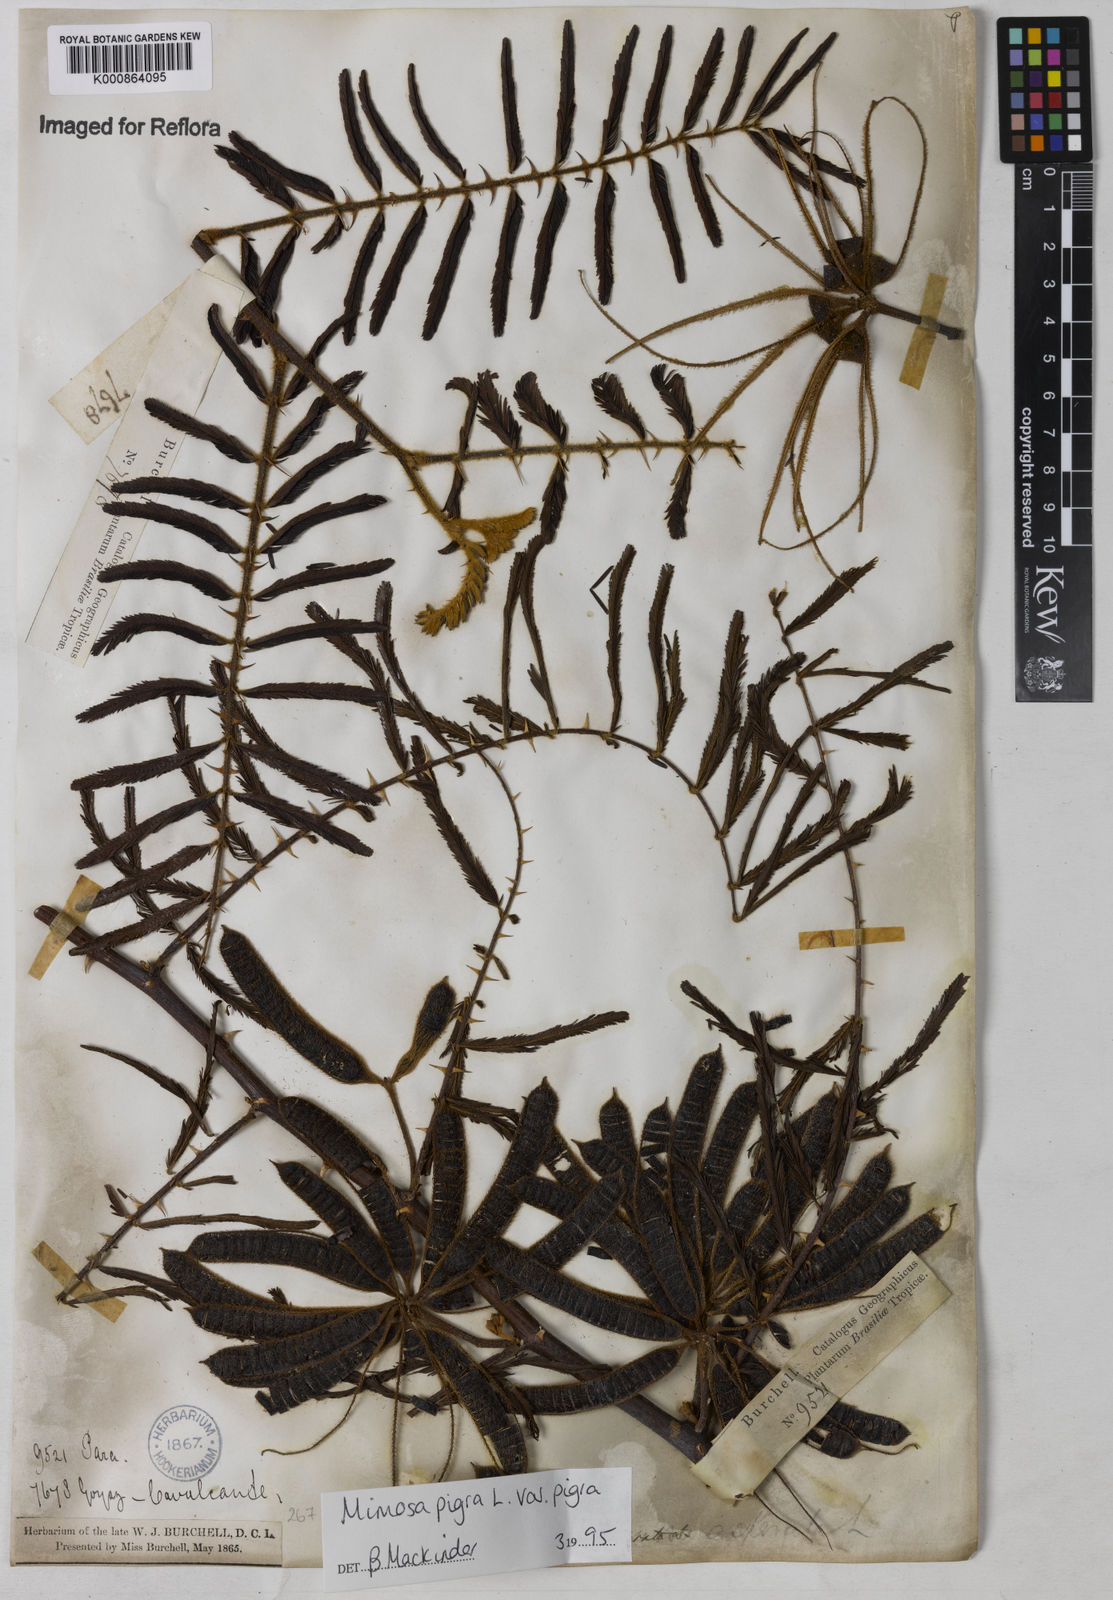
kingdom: Plantae
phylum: Tracheophyta
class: Magnoliopsida
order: Fabales
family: Fabaceae
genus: Mimosa
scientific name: Mimosa pigra
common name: Black mimosa
